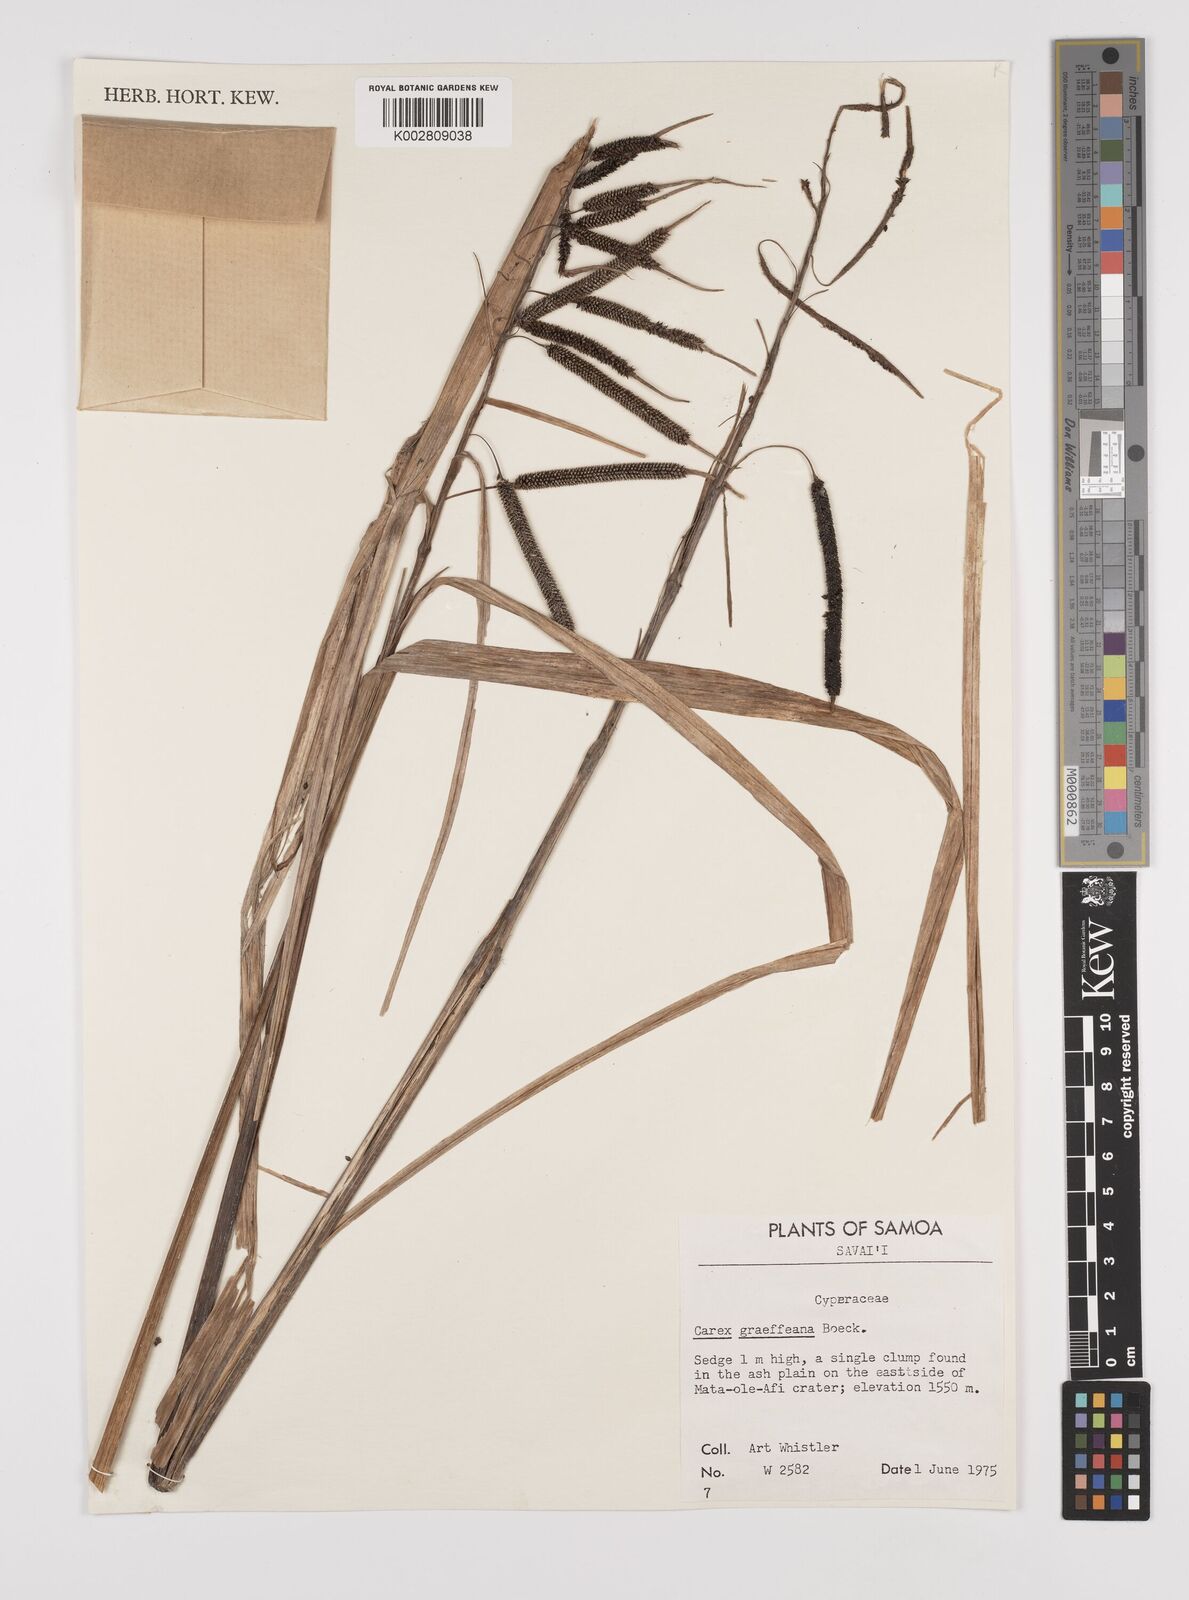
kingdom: Plantae
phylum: Tracheophyta
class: Liliopsida
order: Poales
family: Cyperaceae
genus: Carex
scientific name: Carex graeffeana
